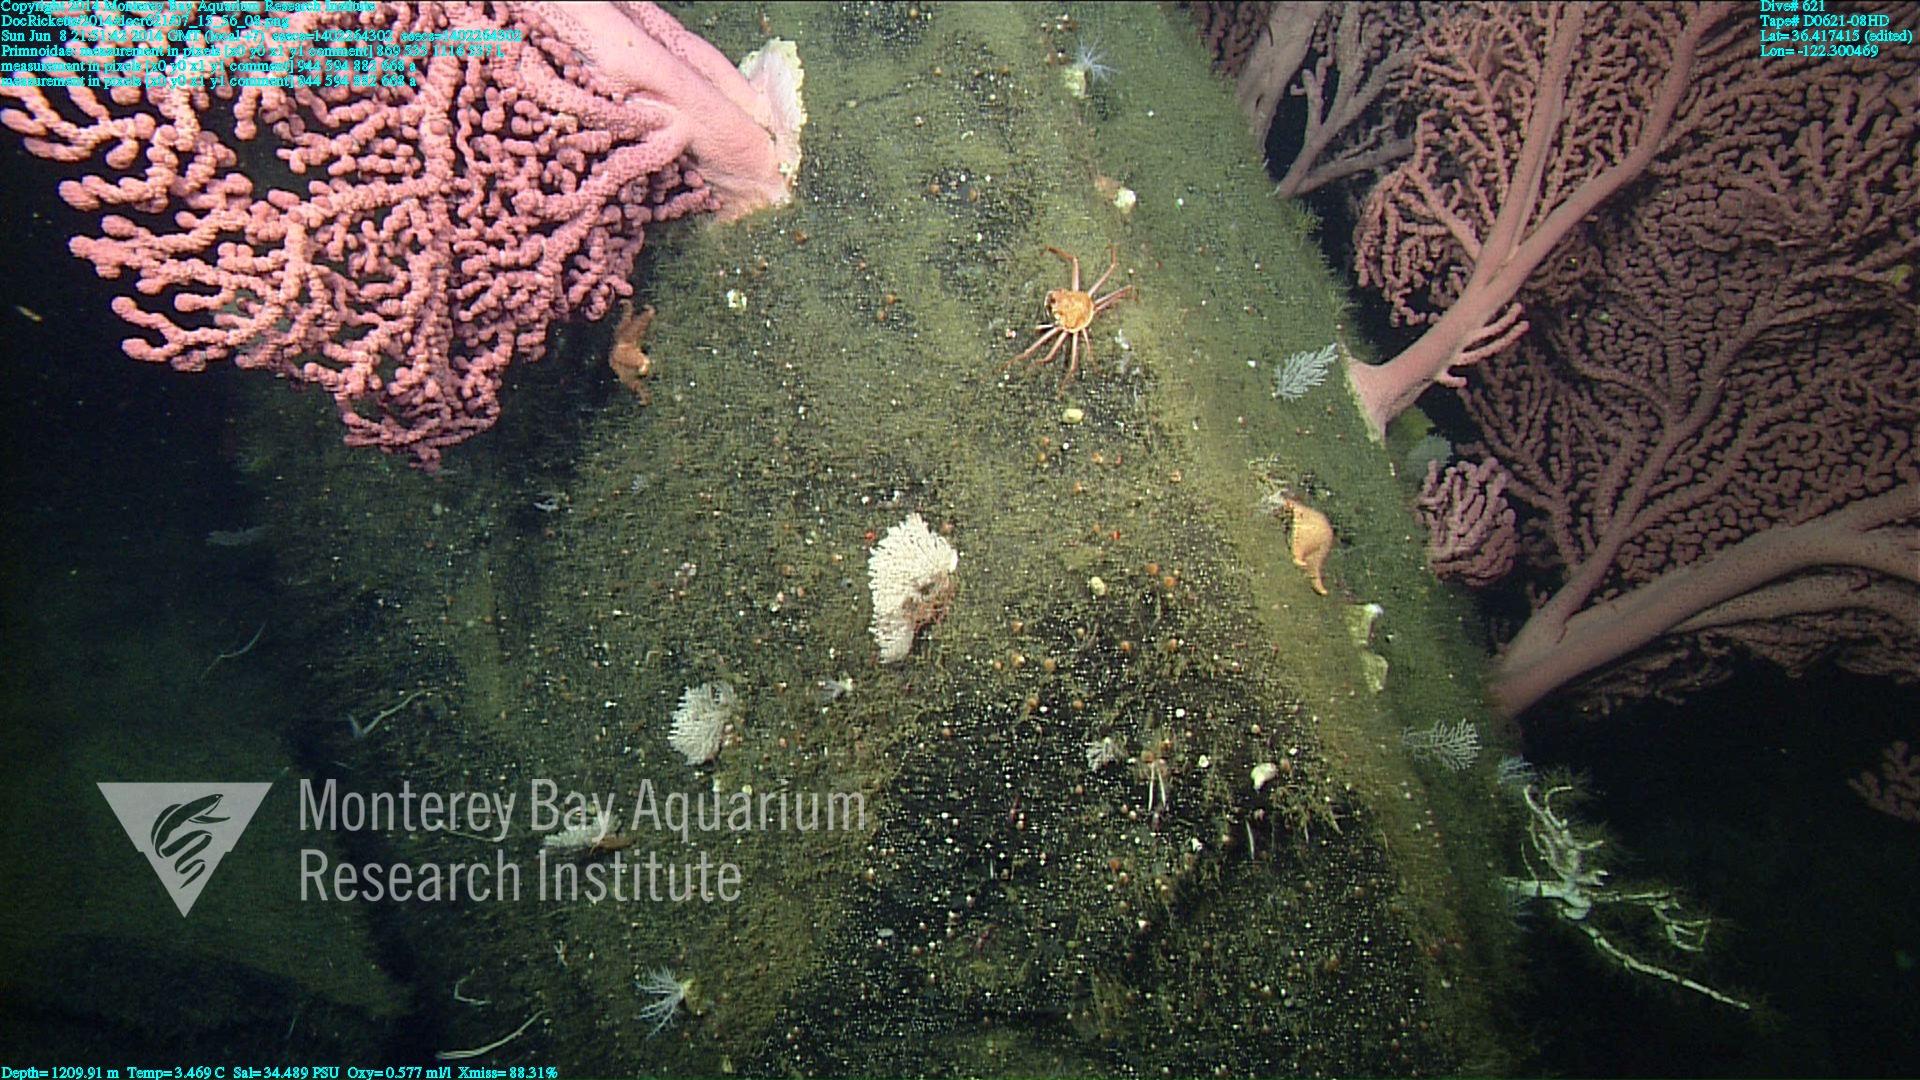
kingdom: Animalia
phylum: Cnidaria
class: Anthozoa
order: Scleralcyonacea
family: Primnoidae
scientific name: Primnoidae
